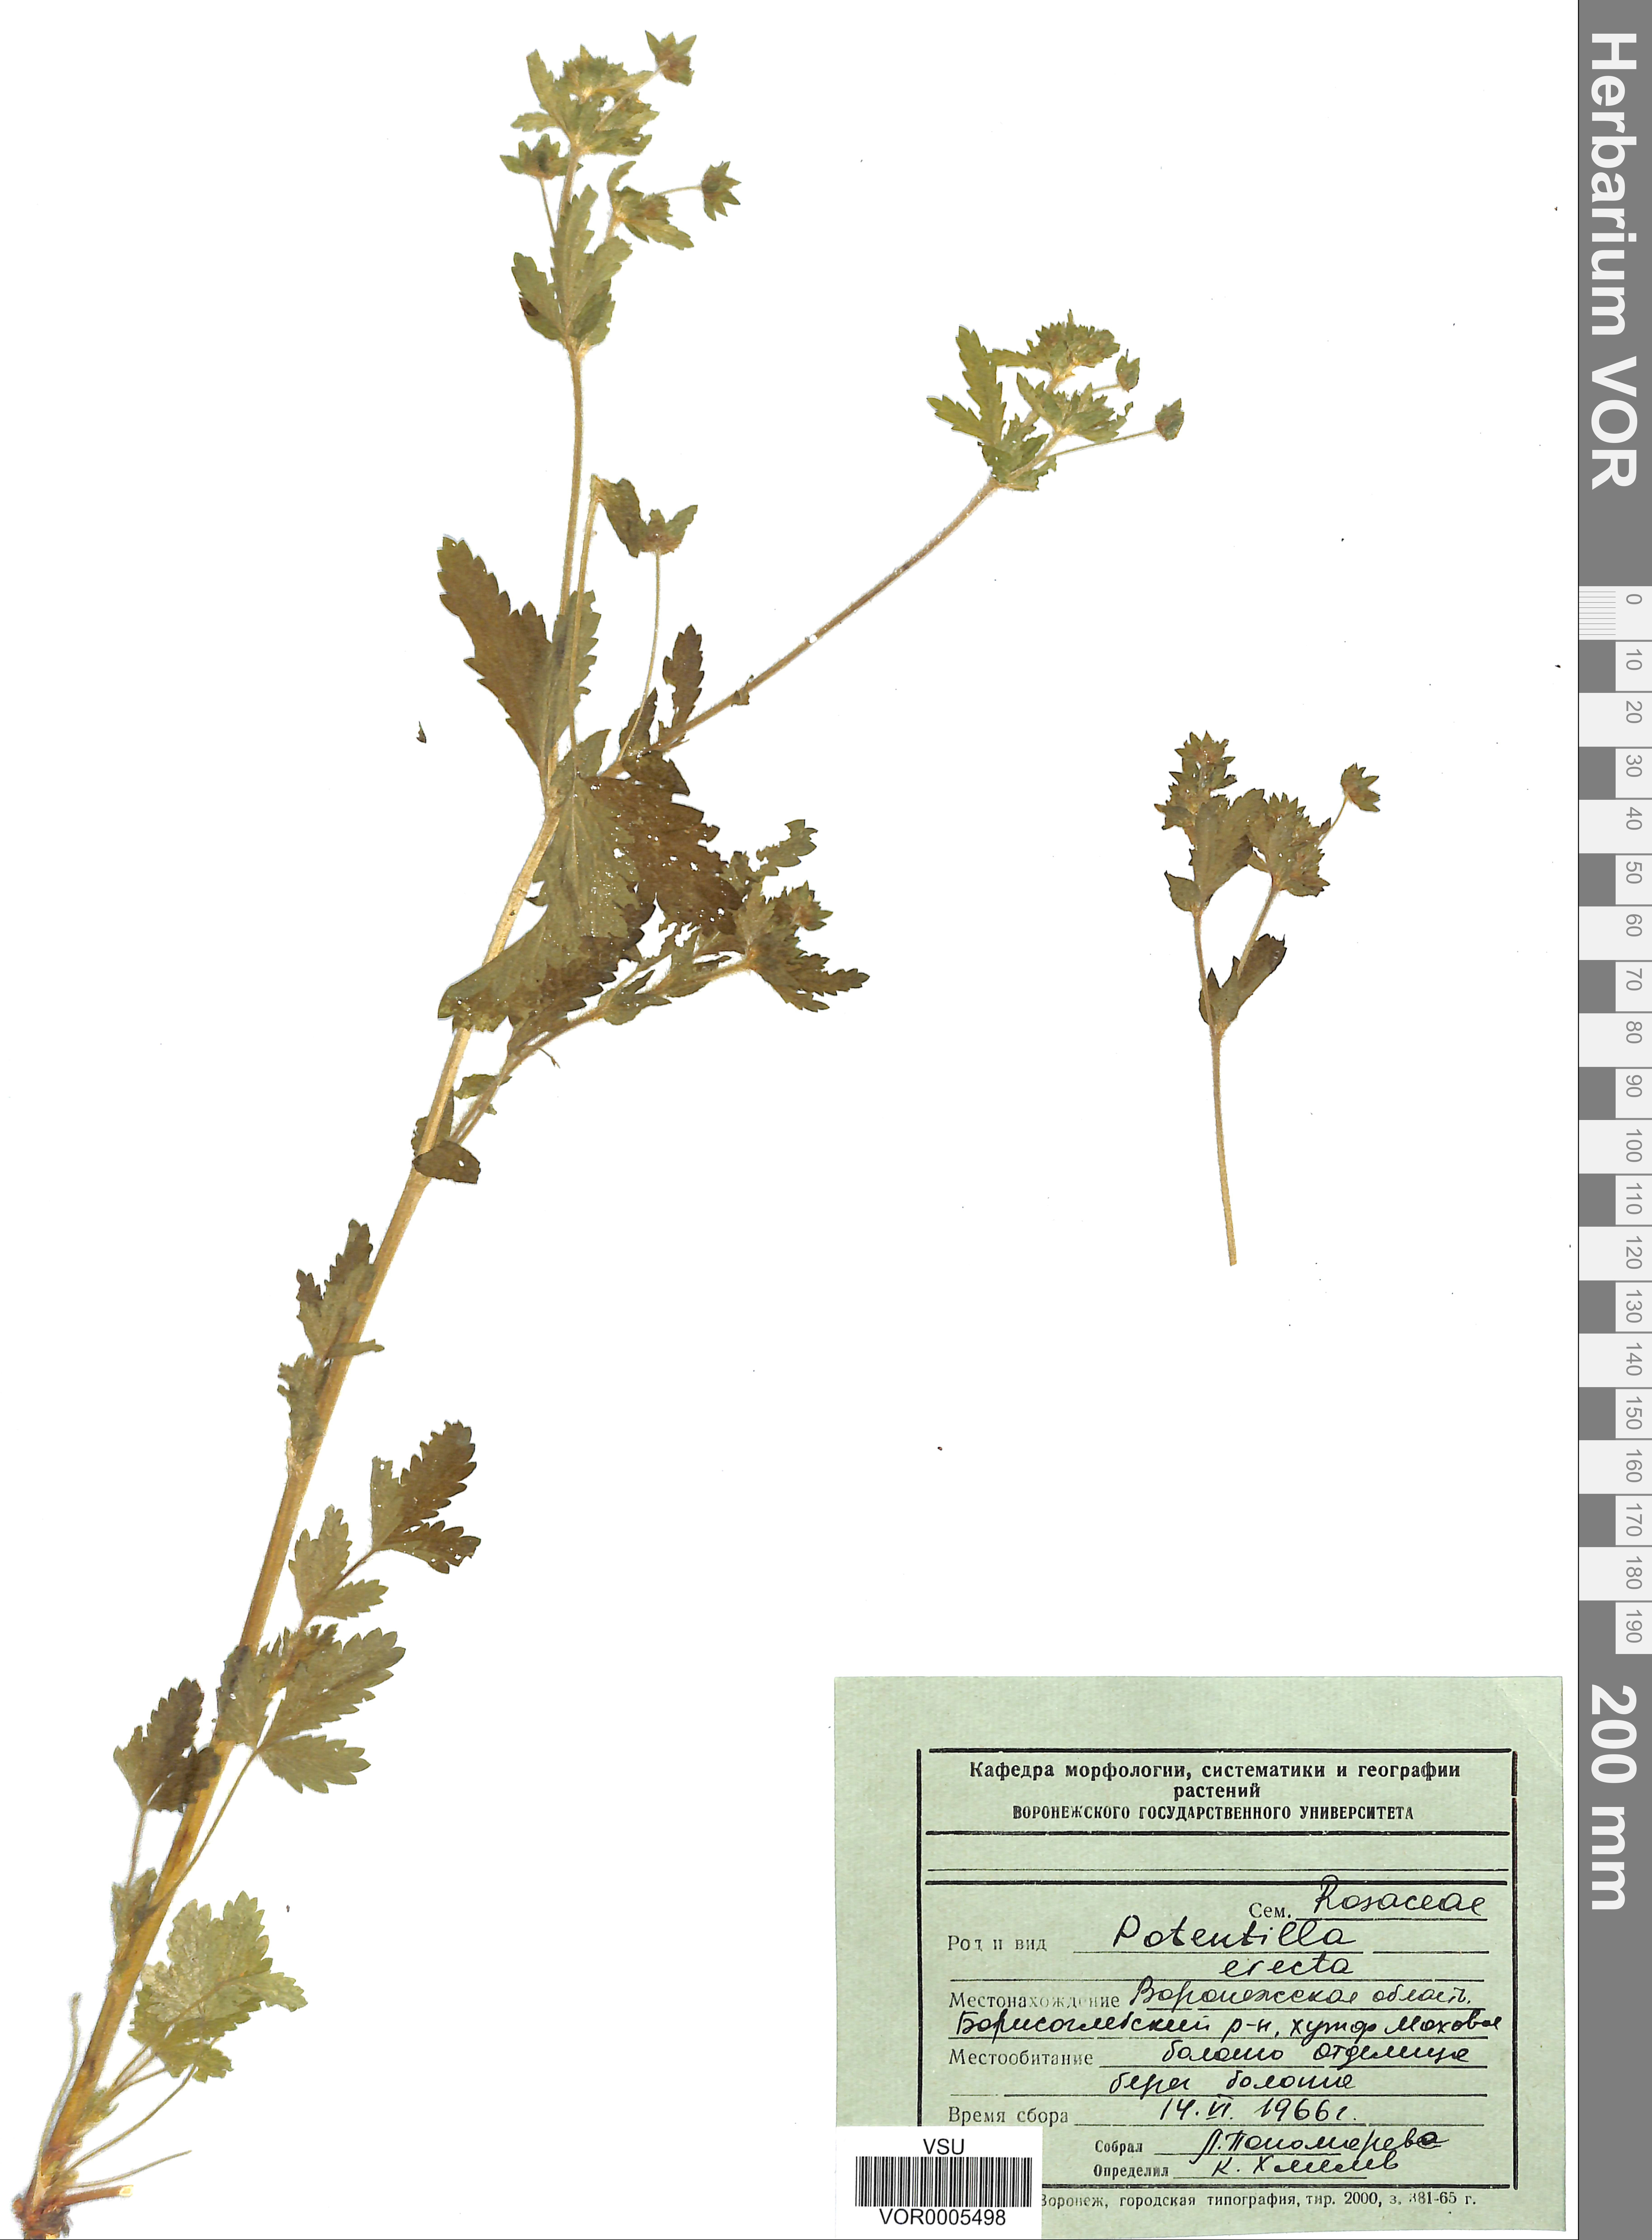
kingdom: Plantae
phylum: Tracheophyta
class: Magnoliopsida
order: Rosales
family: Rosaceae
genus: Potentilla
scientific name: Potentilla erecta
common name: Tormentil
